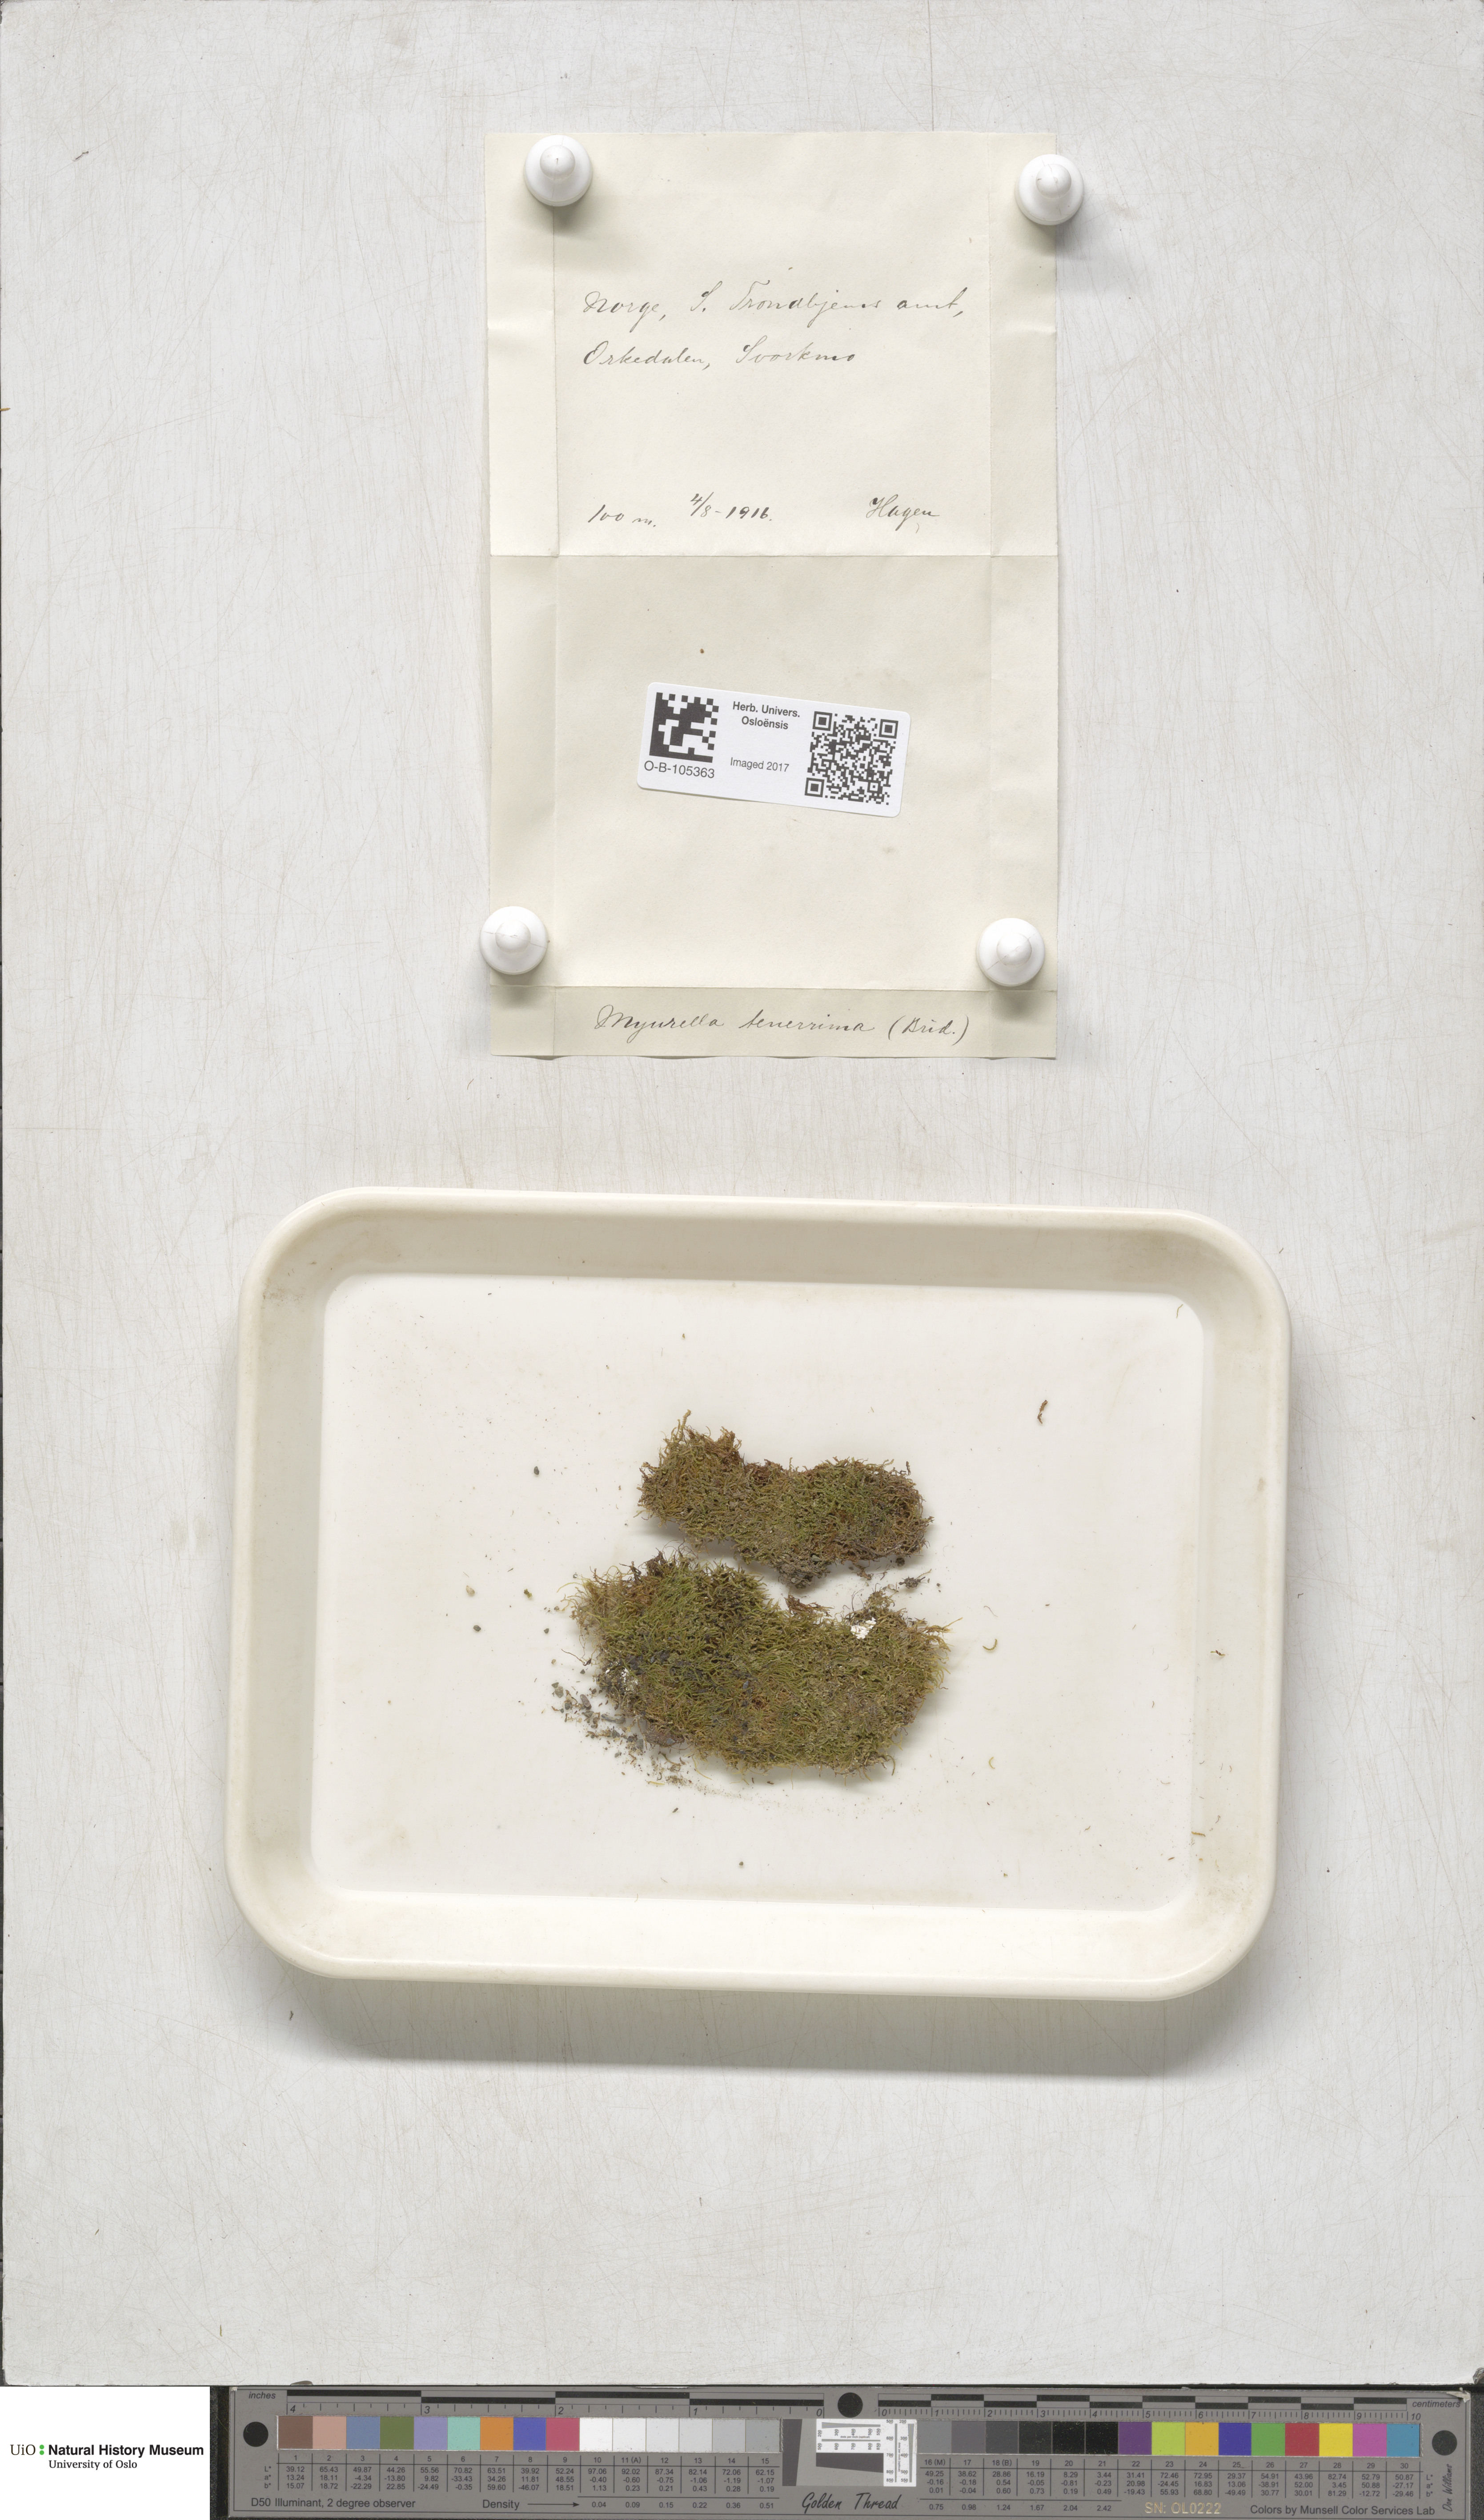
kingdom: Plantae
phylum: Bryophyta
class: Bryopsida
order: Hypnales
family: Plagiotheciaceae
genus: Myurella
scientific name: Myurella tenerrima
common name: Dwarf mousetail moss
